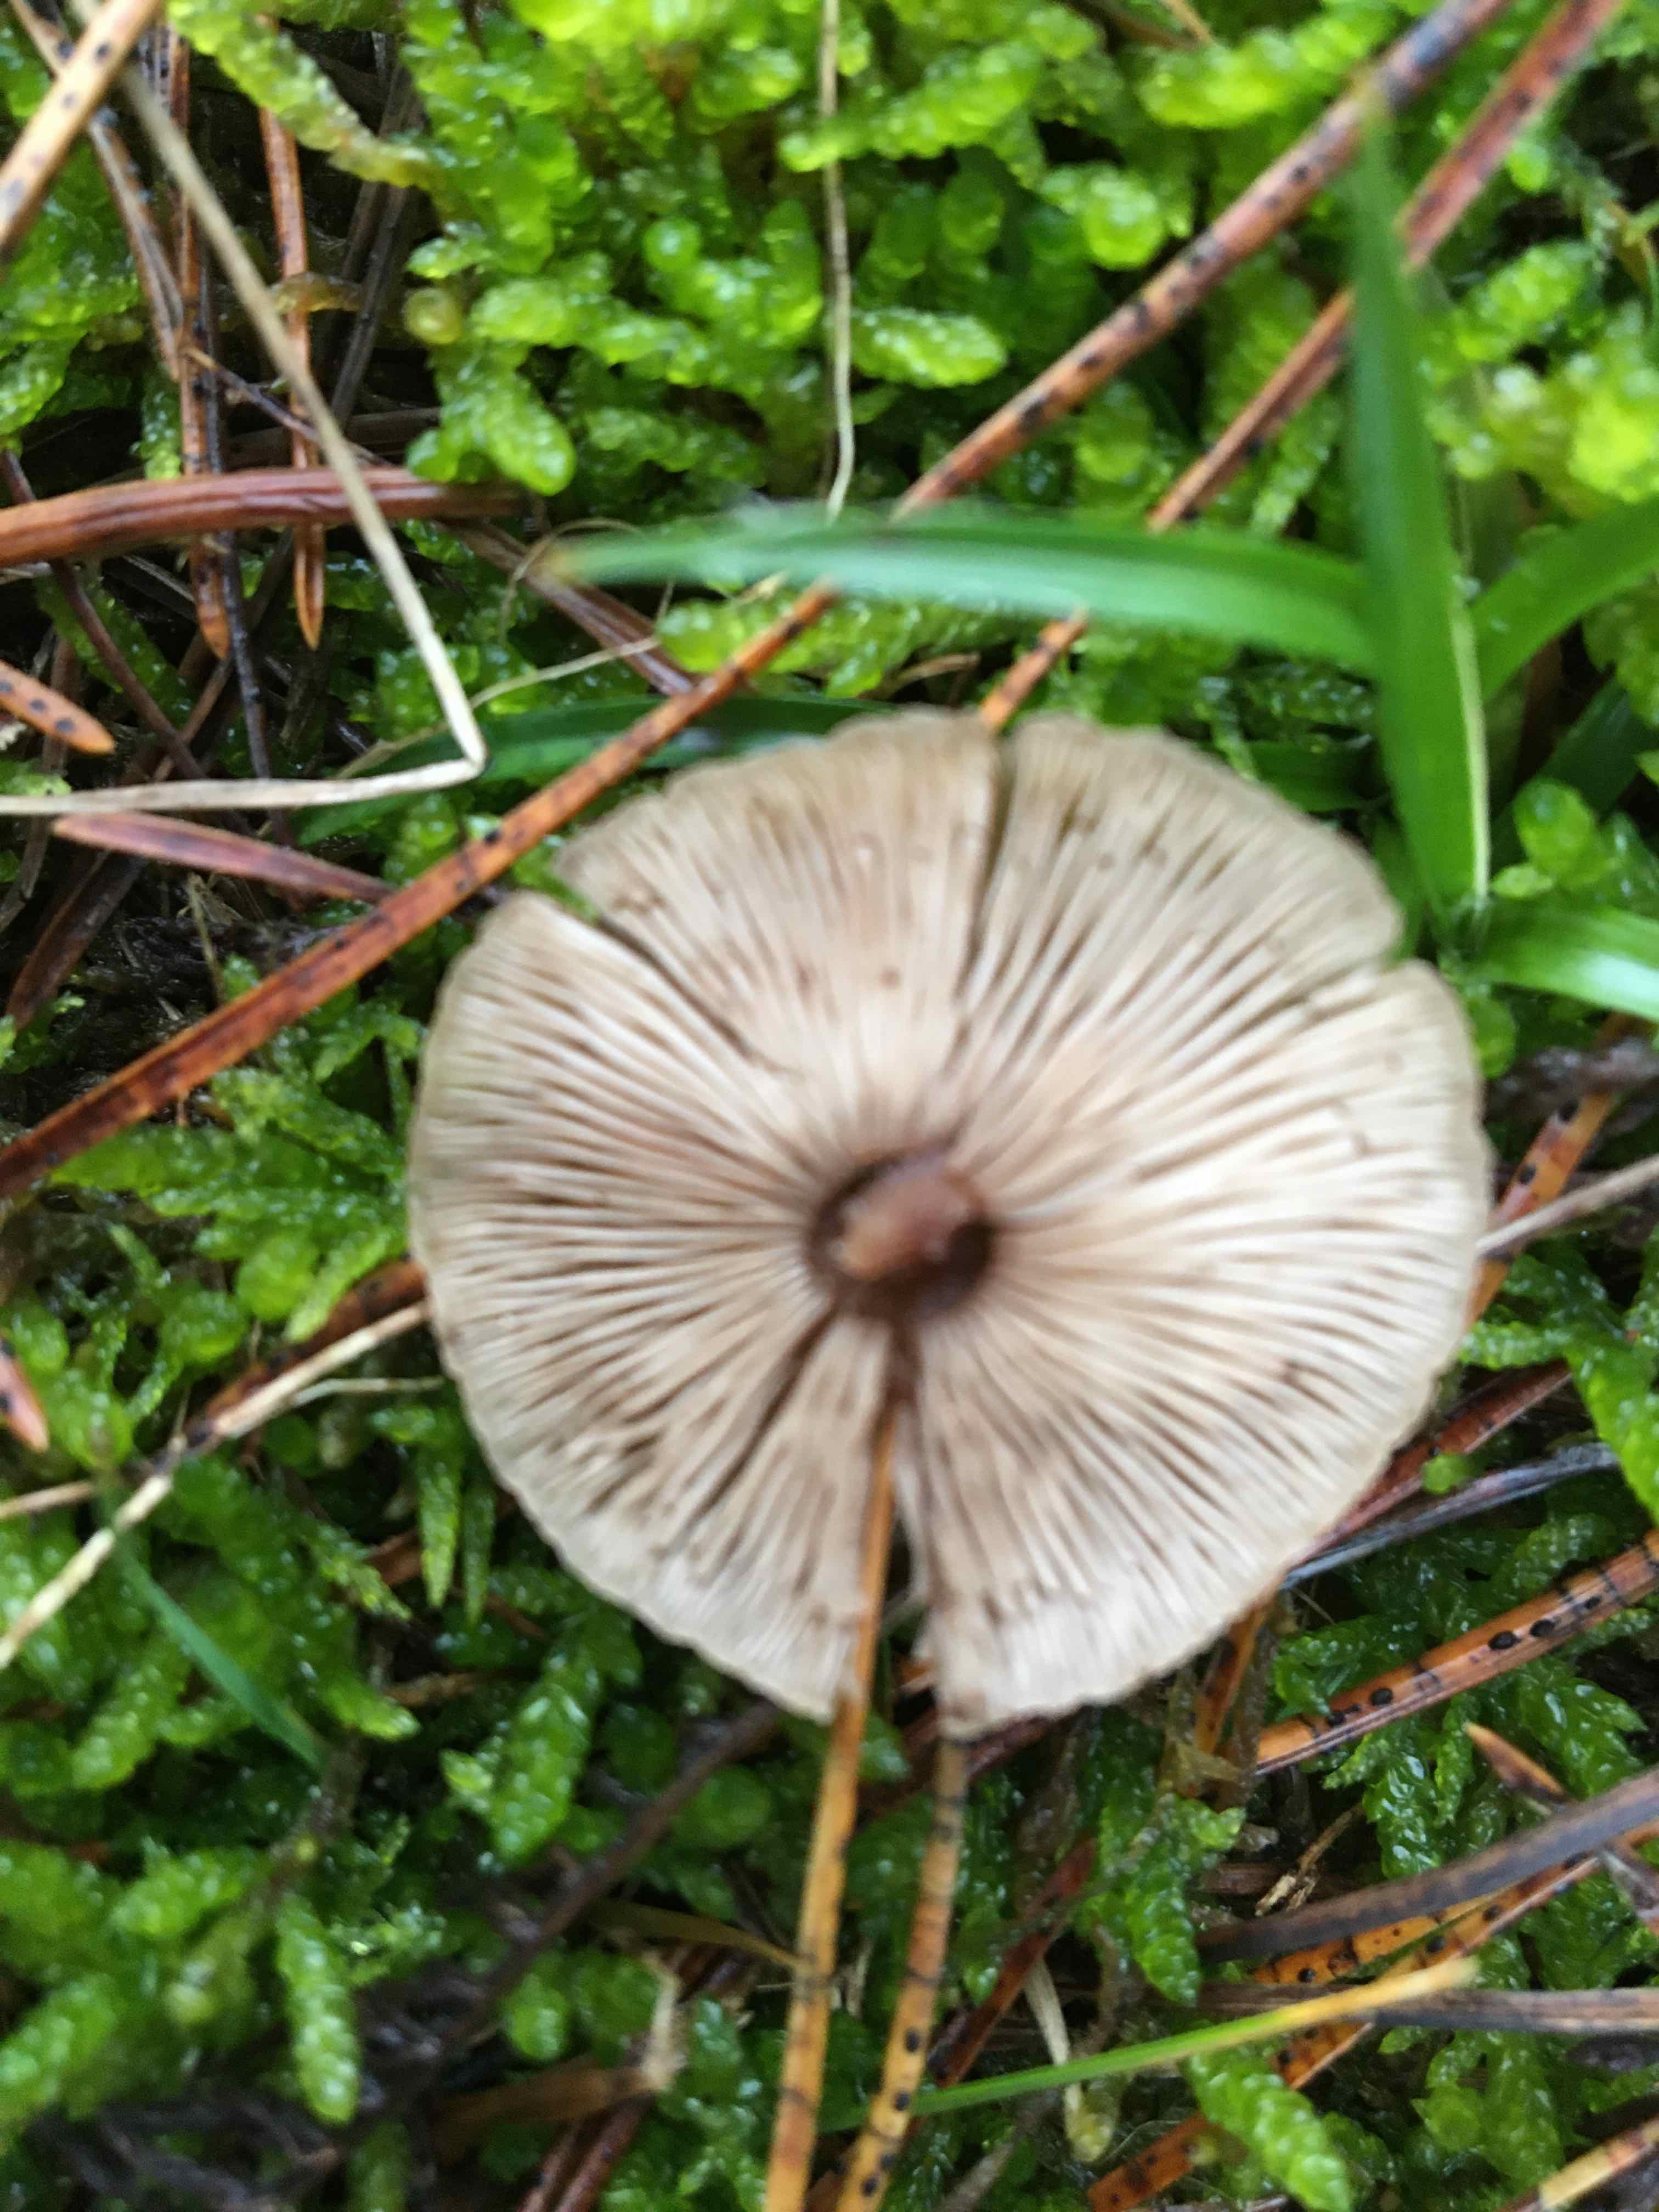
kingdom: Fungi
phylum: Basidiomycota
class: Agaricomycetes
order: Agaricales
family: Marasmiaceae
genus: Baeospora
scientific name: Baeospora myosura
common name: koglebruskhat
